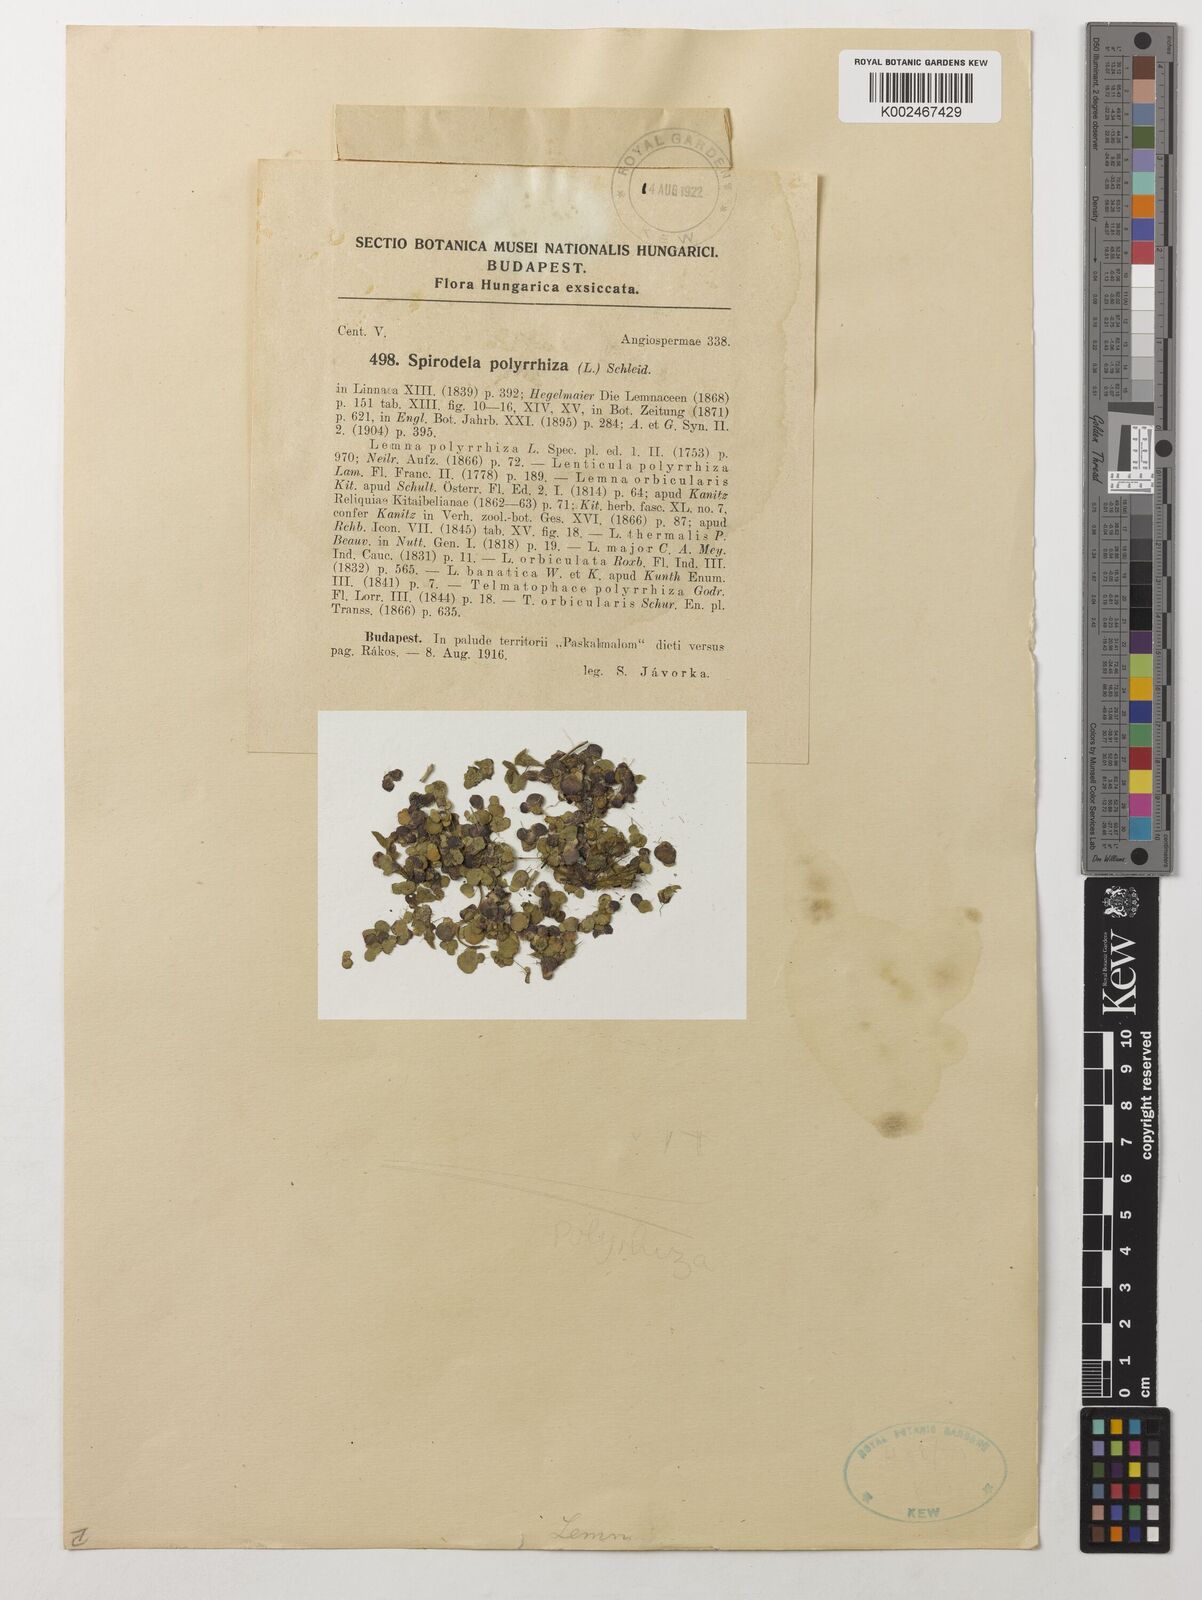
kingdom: Plantae
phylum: Tracheophyta
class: Liliopsida
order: Alismatales
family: Araceae
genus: Spirodela
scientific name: Spirodela polyrhiza
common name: Great duckweed
